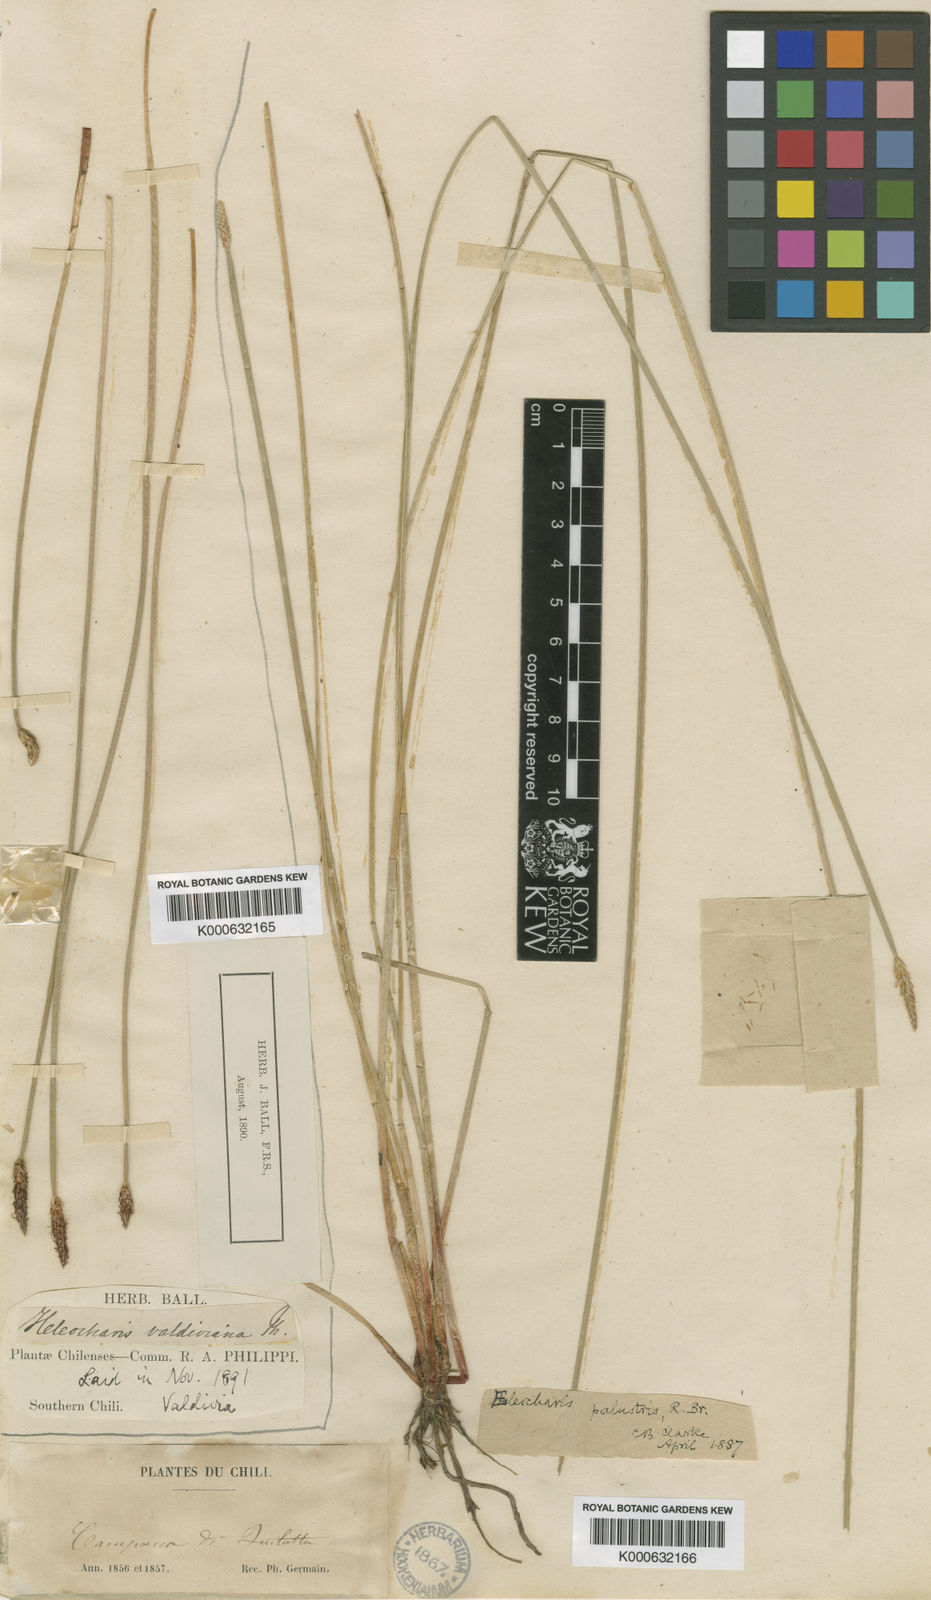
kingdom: Plantae
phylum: Tracheophyta
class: Liliopsida
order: Poales
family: Cyperaceae
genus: Eleocharis
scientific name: Eleocharis palustris
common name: Common spike-rush
